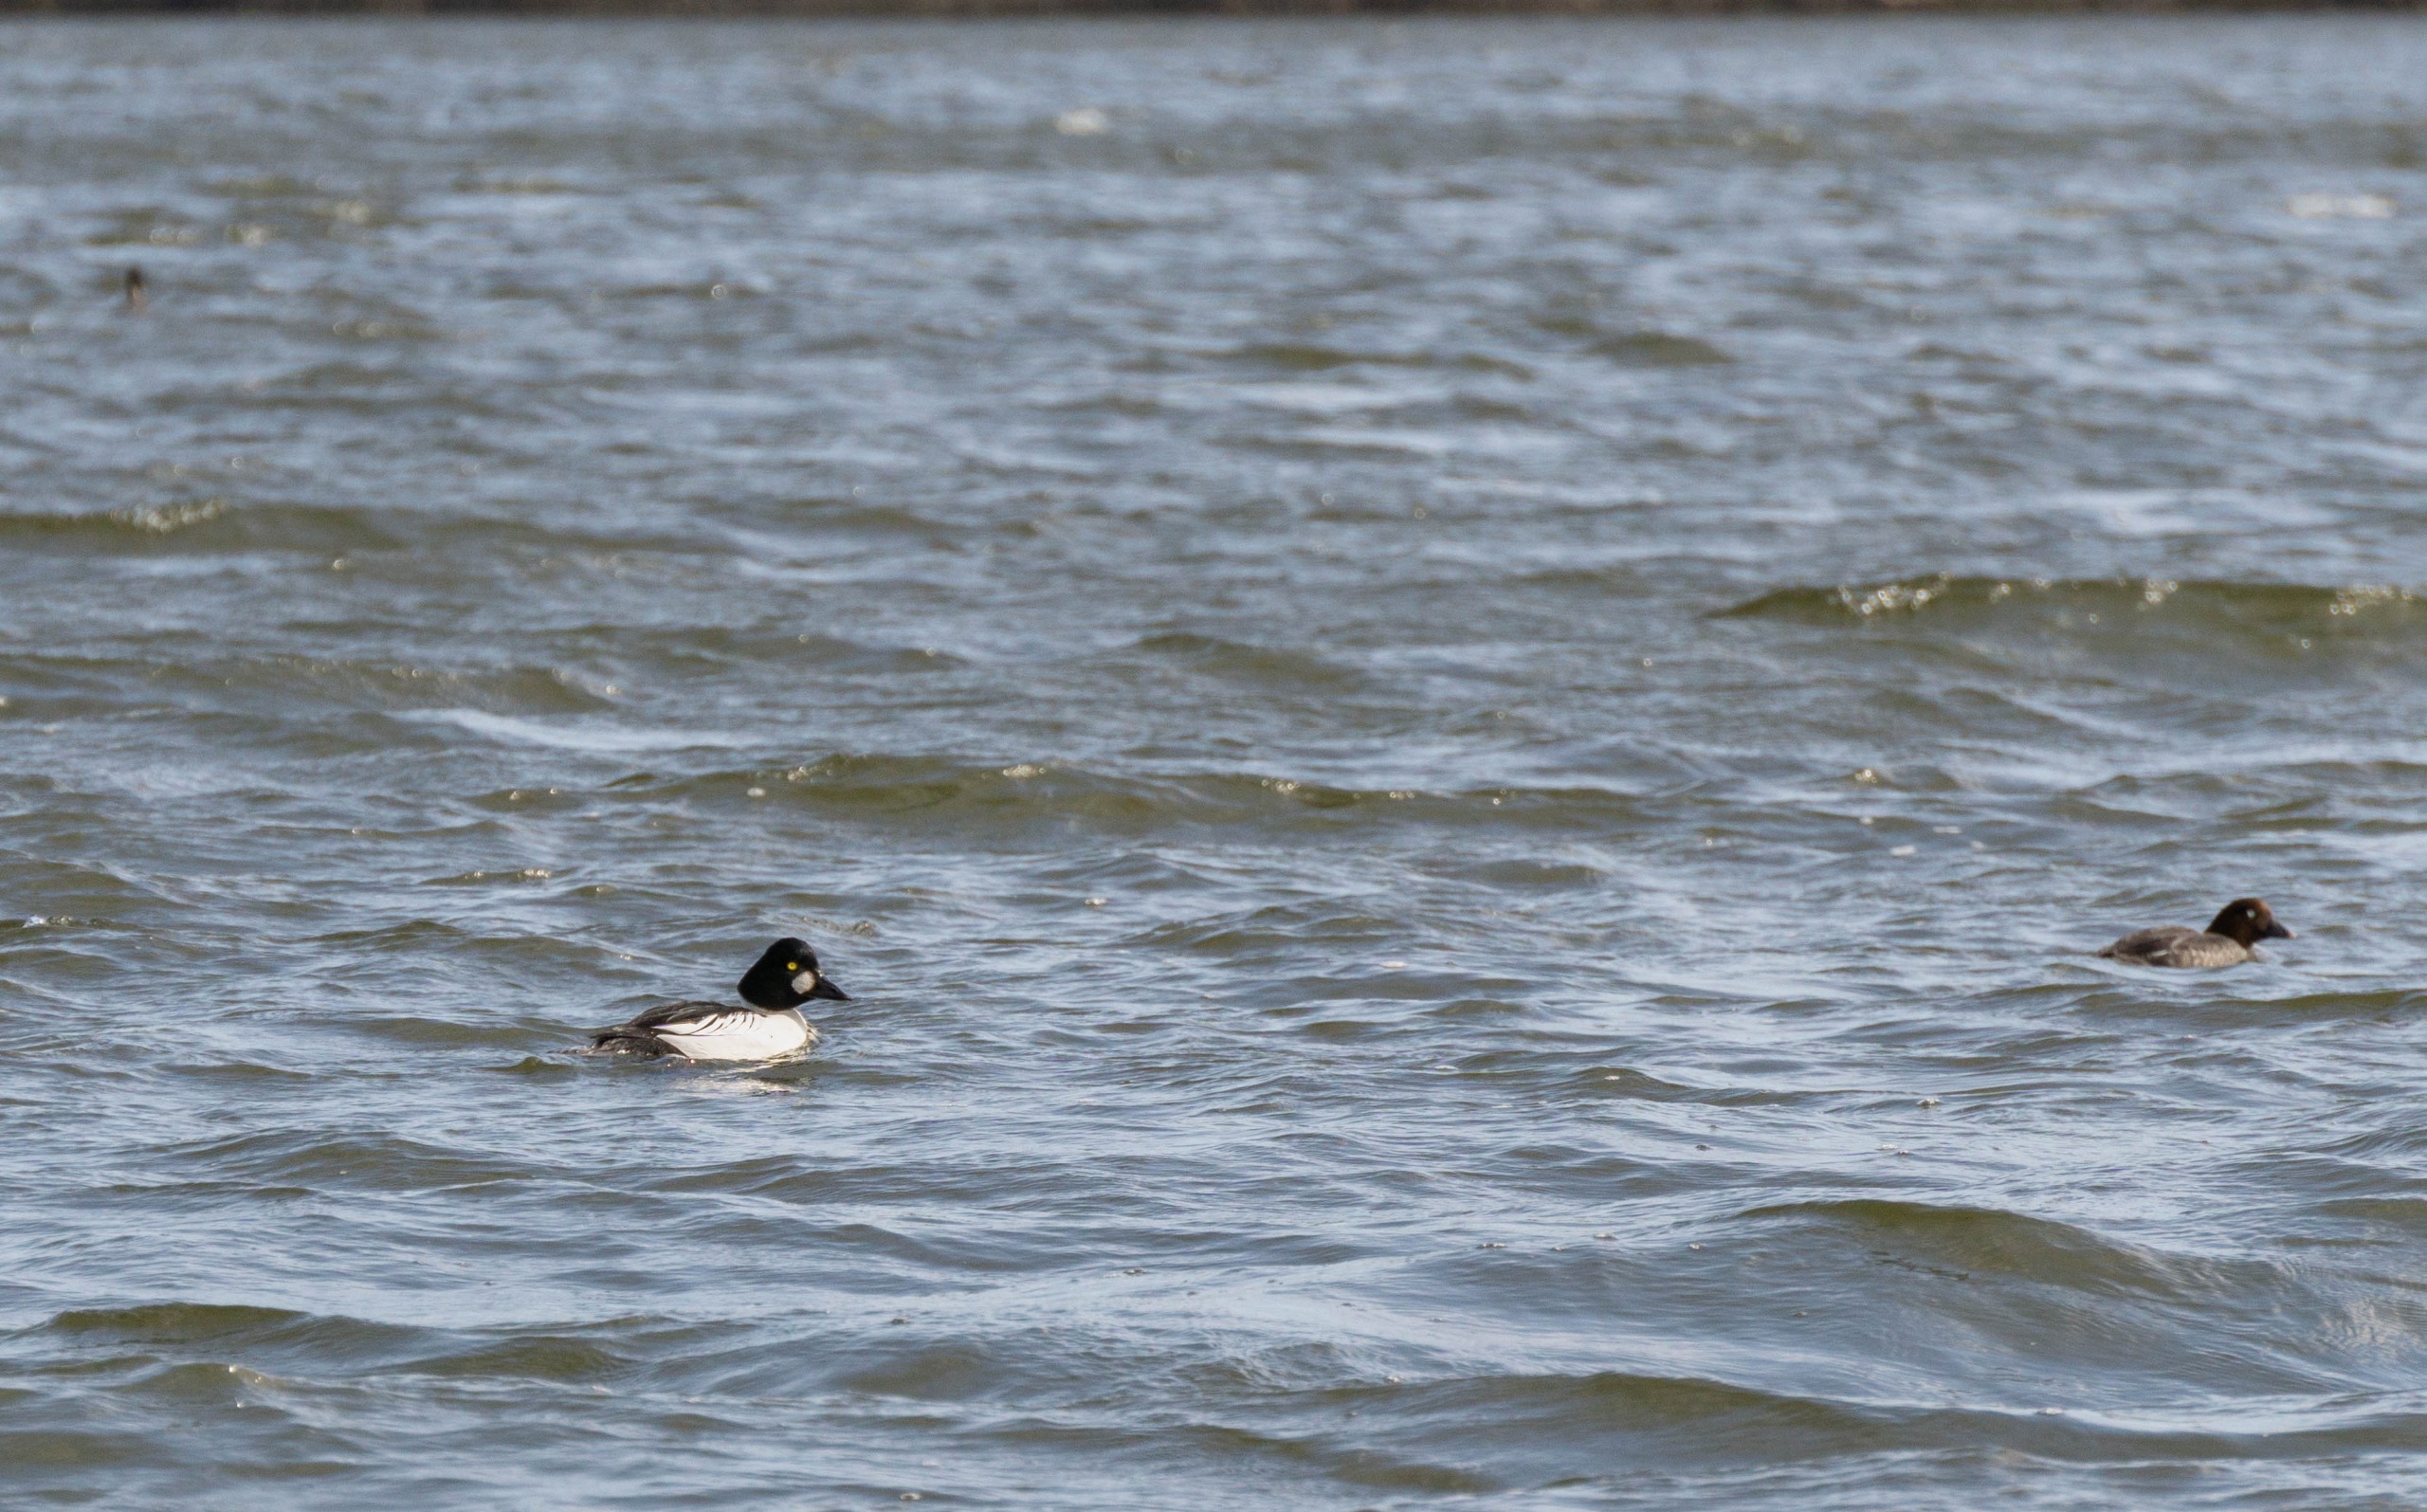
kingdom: Animalia
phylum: Chordata
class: Aves
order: Anseriformes
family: Anatidae
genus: Bucephala
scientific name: Bucephala clangula
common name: Hvinand
